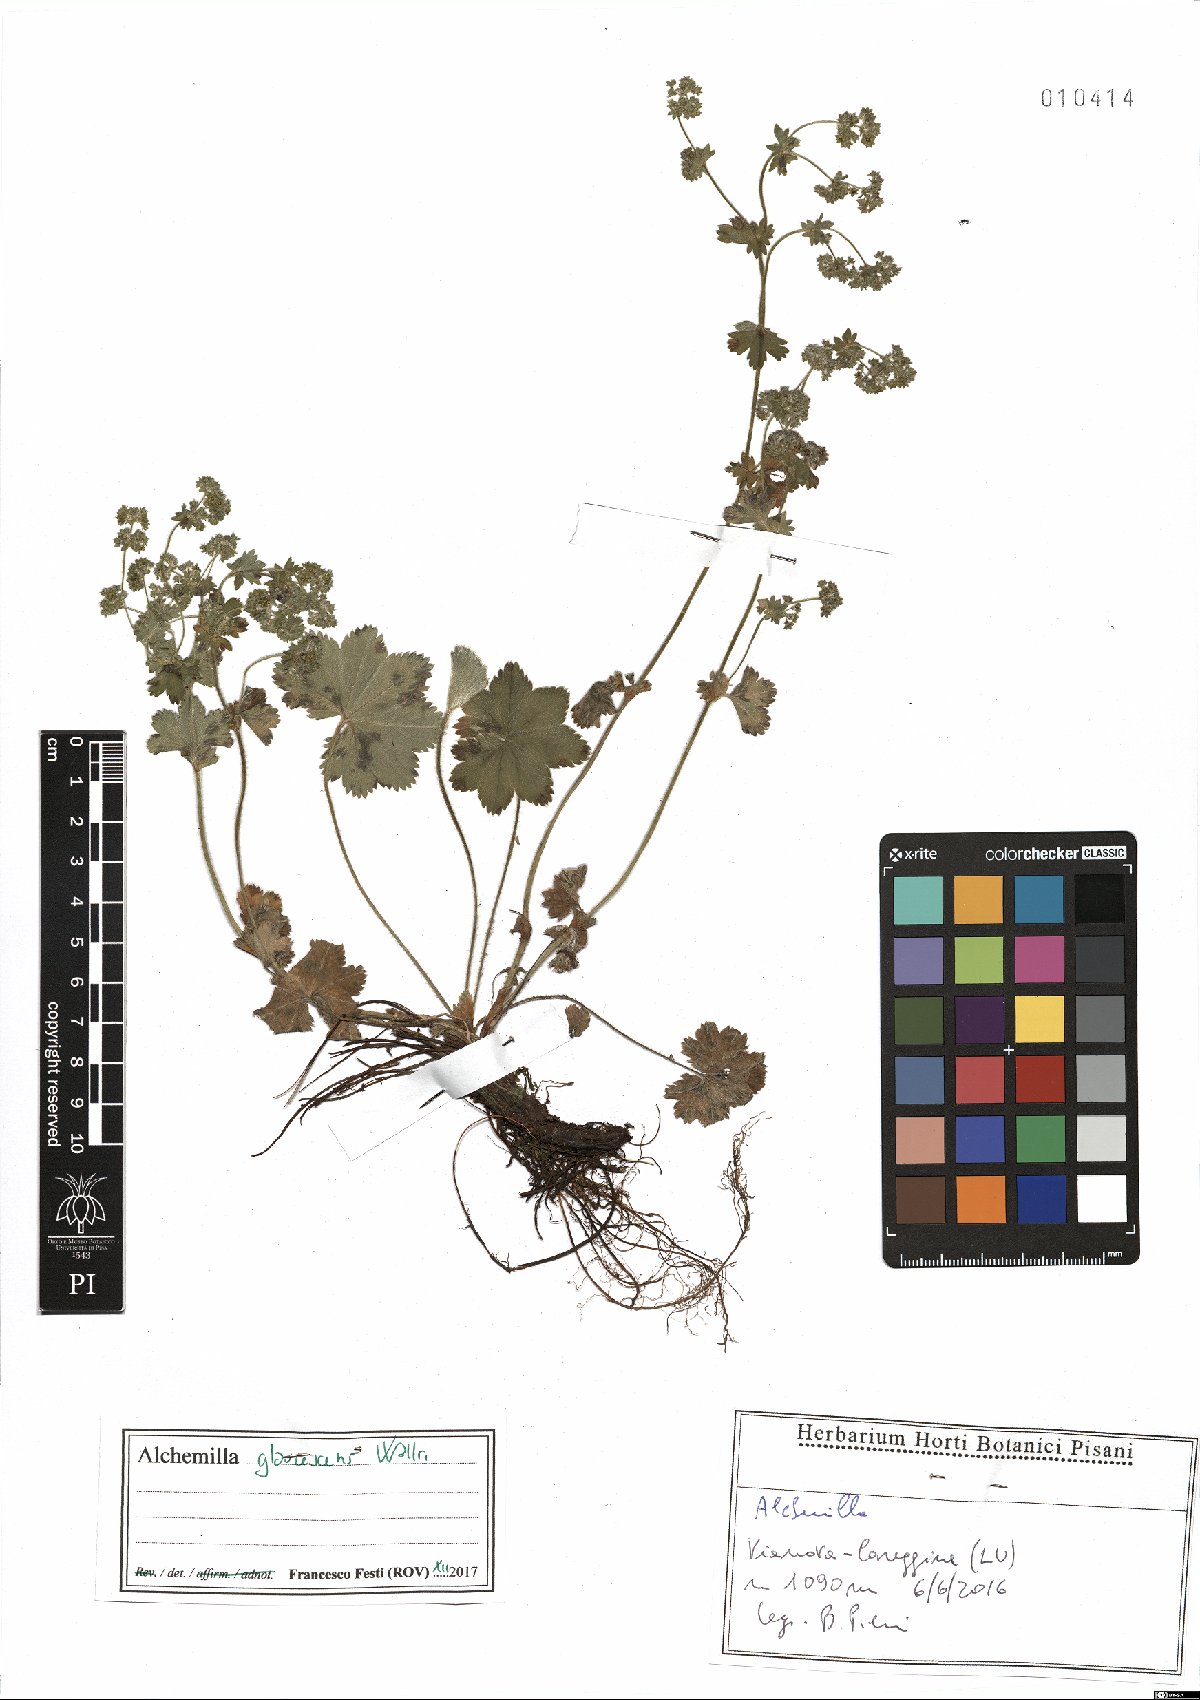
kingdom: Plantae
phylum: Tracheophyta
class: Magnoliopsida
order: Rosales
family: Rosaceae
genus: Alchemilla
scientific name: Alchemilla glaucescens
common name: Silky lady's mantle
